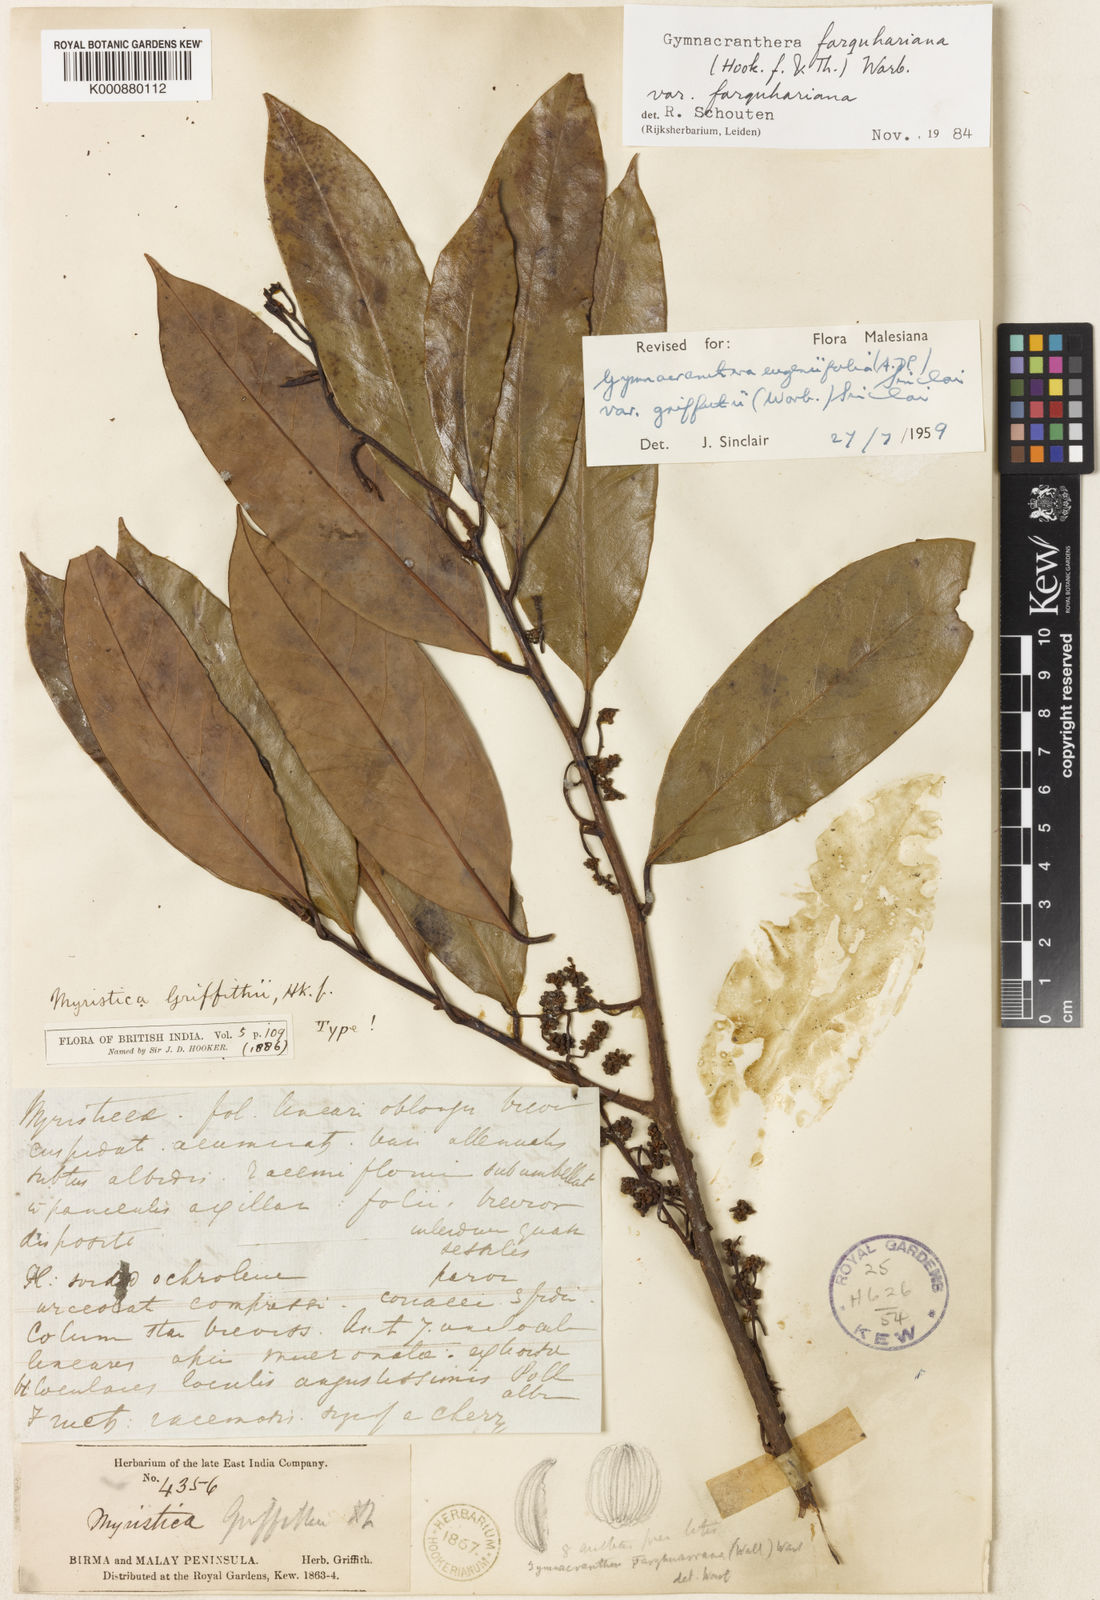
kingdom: Plantae
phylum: Tracheophyta
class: Magnoliopsida
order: Magnoliales
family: Myristicaceae
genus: Gymnacranthera
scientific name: Gymnacranthera farquhariana
